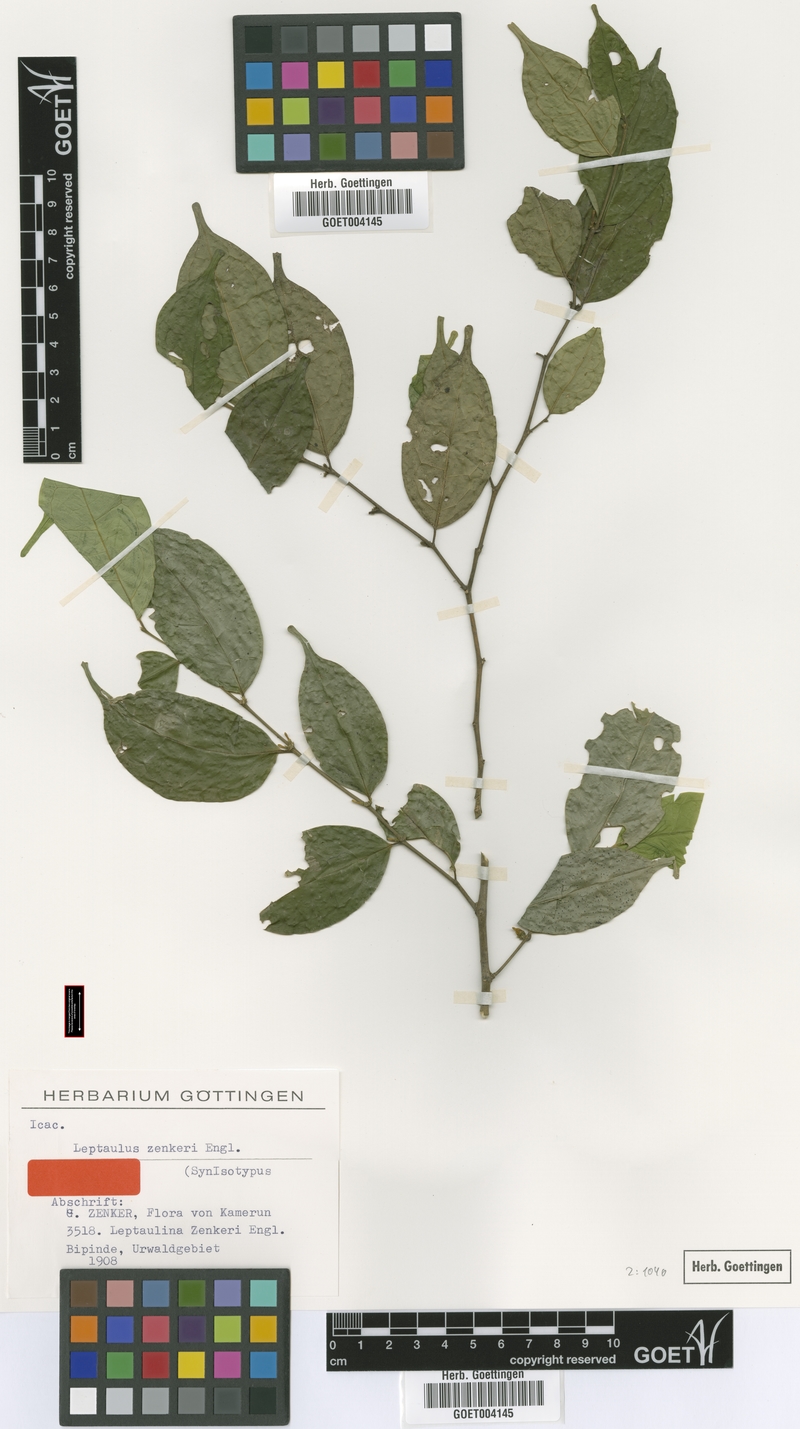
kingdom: Plantae
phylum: Tracheophyta
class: Magnoliopsida
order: Cardiopteridales
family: Cardiopteridaceae
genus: Leptaulus
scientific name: Leptaulus congolanus
